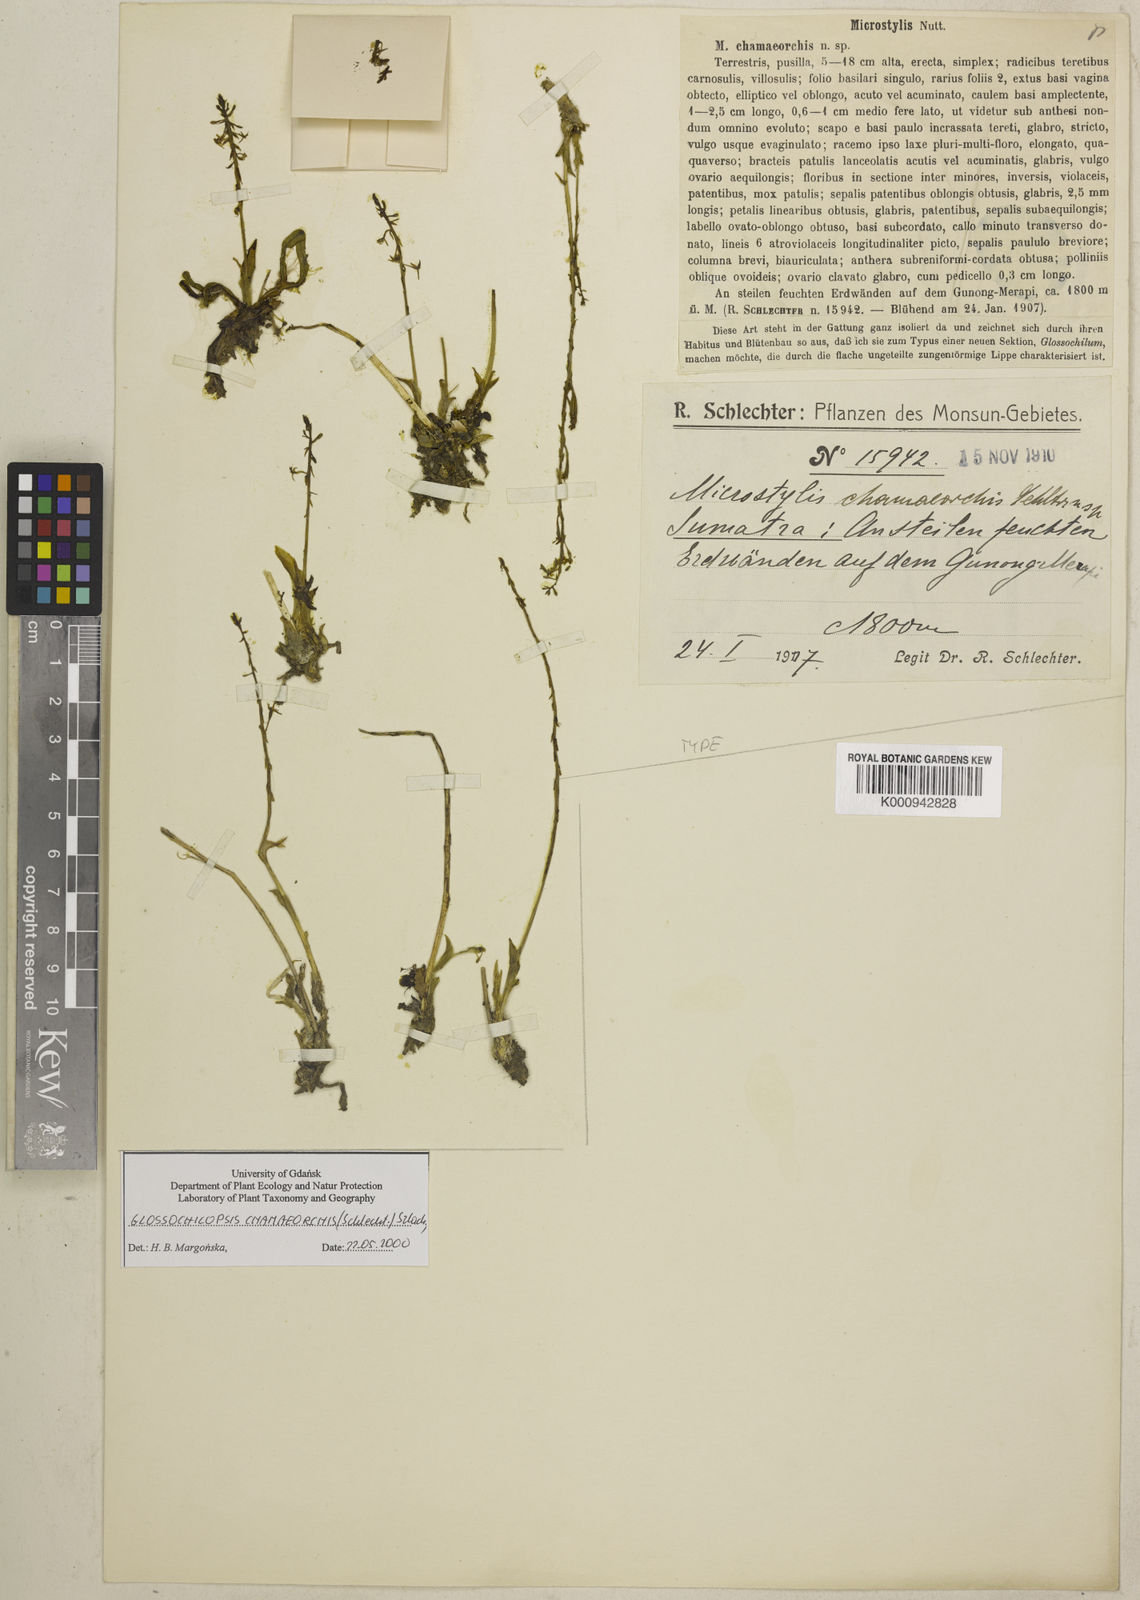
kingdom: Plantae
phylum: Tracheophyta
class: Liliopsida
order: Asparagales
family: Orchidaceae
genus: Crepidium
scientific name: Crepidium chamaeorchis
